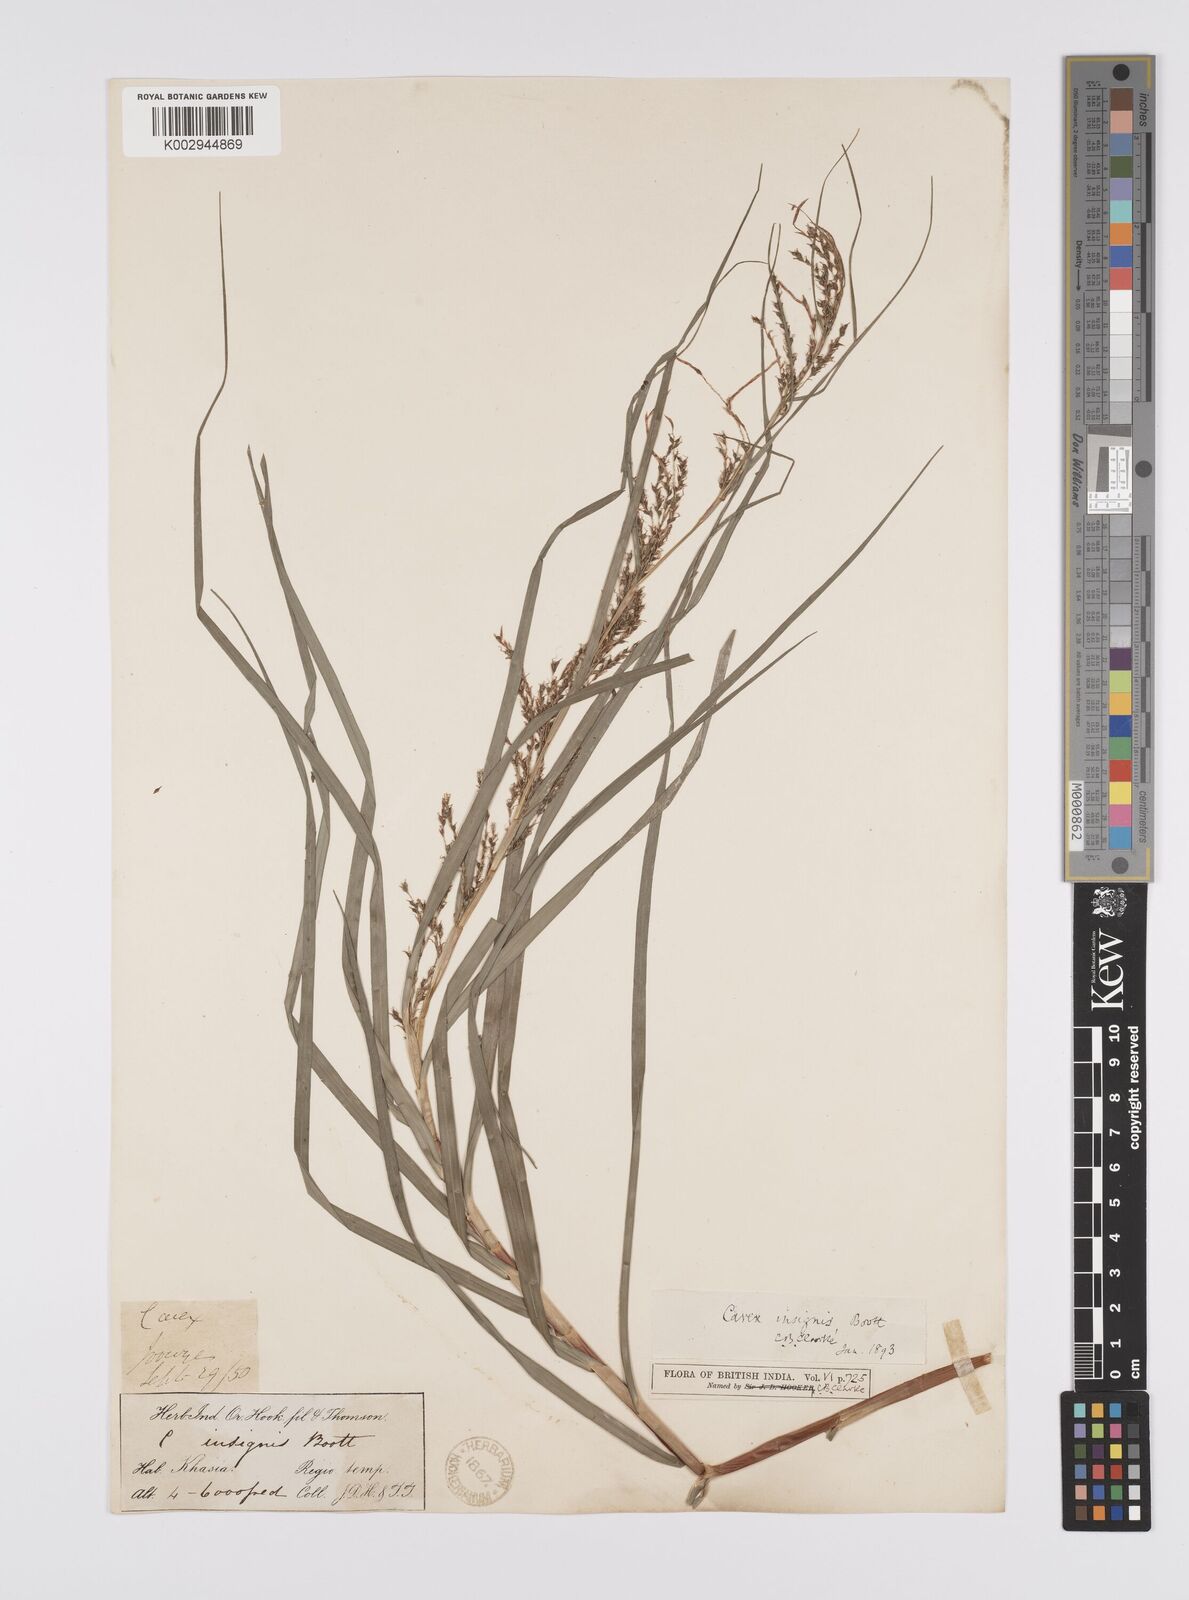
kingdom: Plantae
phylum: Tracheophyta
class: Liliopsida
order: Poales
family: Cyperaceae
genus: Carex
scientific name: Carex insignis
